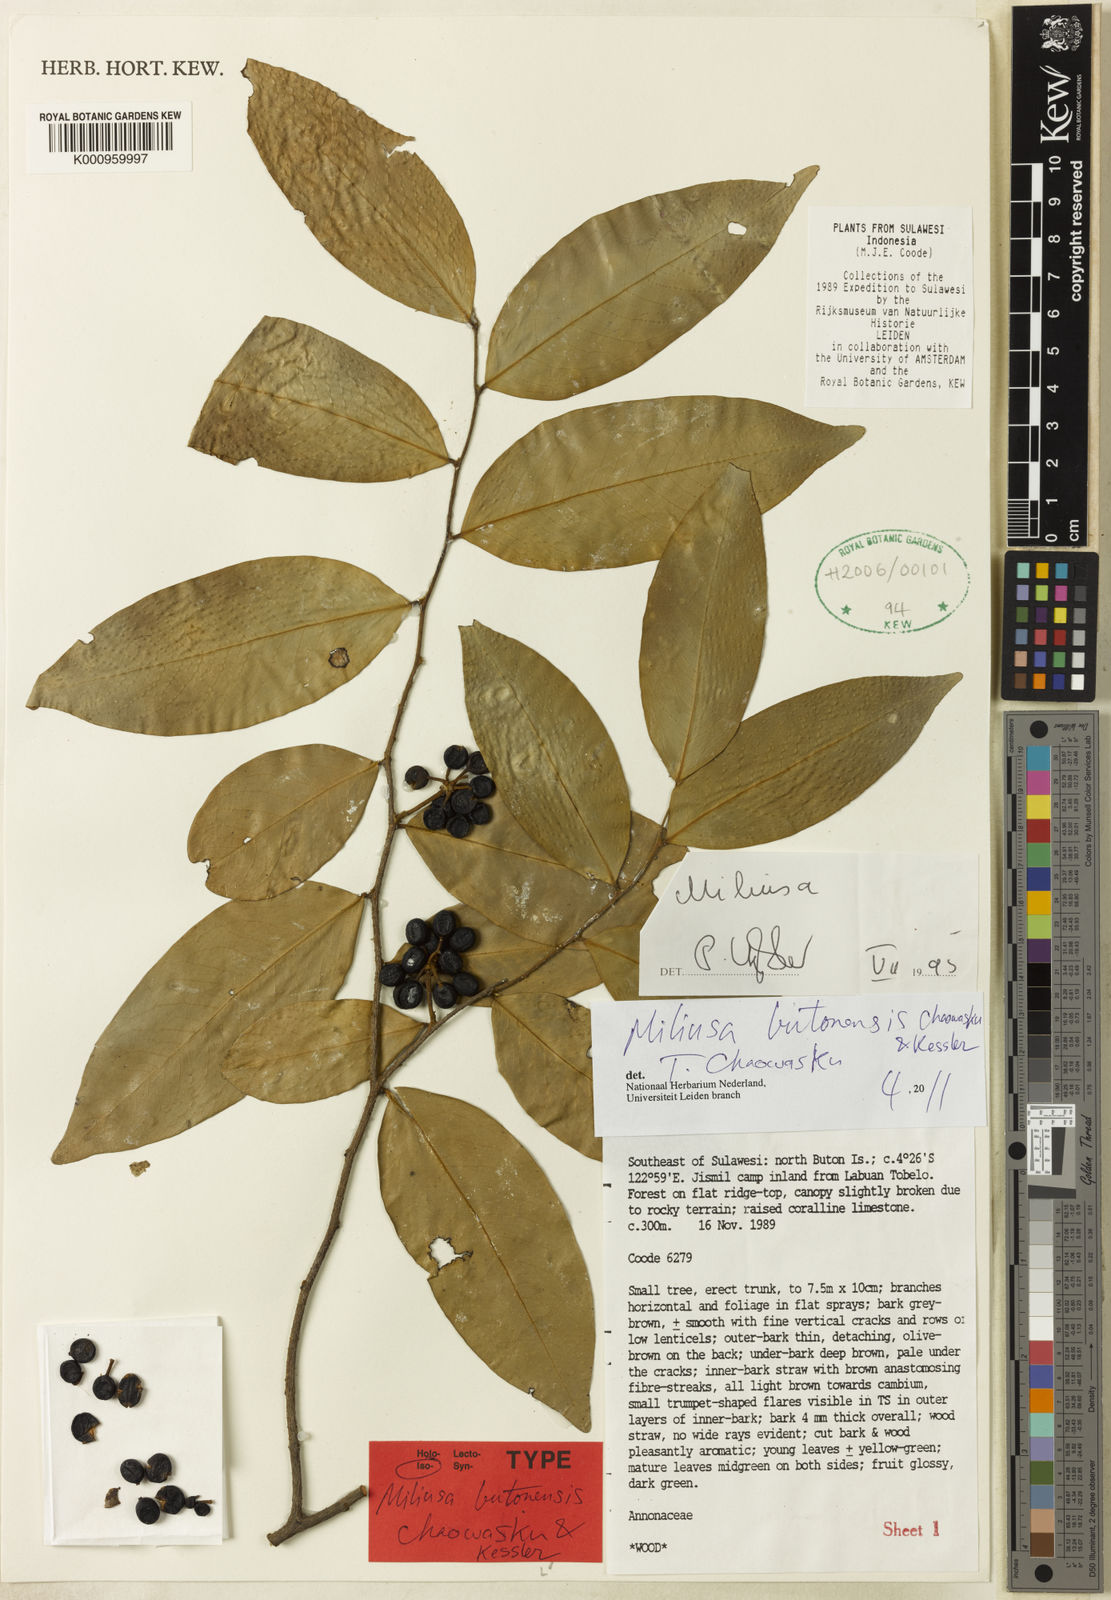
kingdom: Plantae
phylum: Tracheophyta
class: Magnoliopsida
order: Magnoliales
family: Annonaceae
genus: Miliusa
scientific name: Miliusa butonensis
